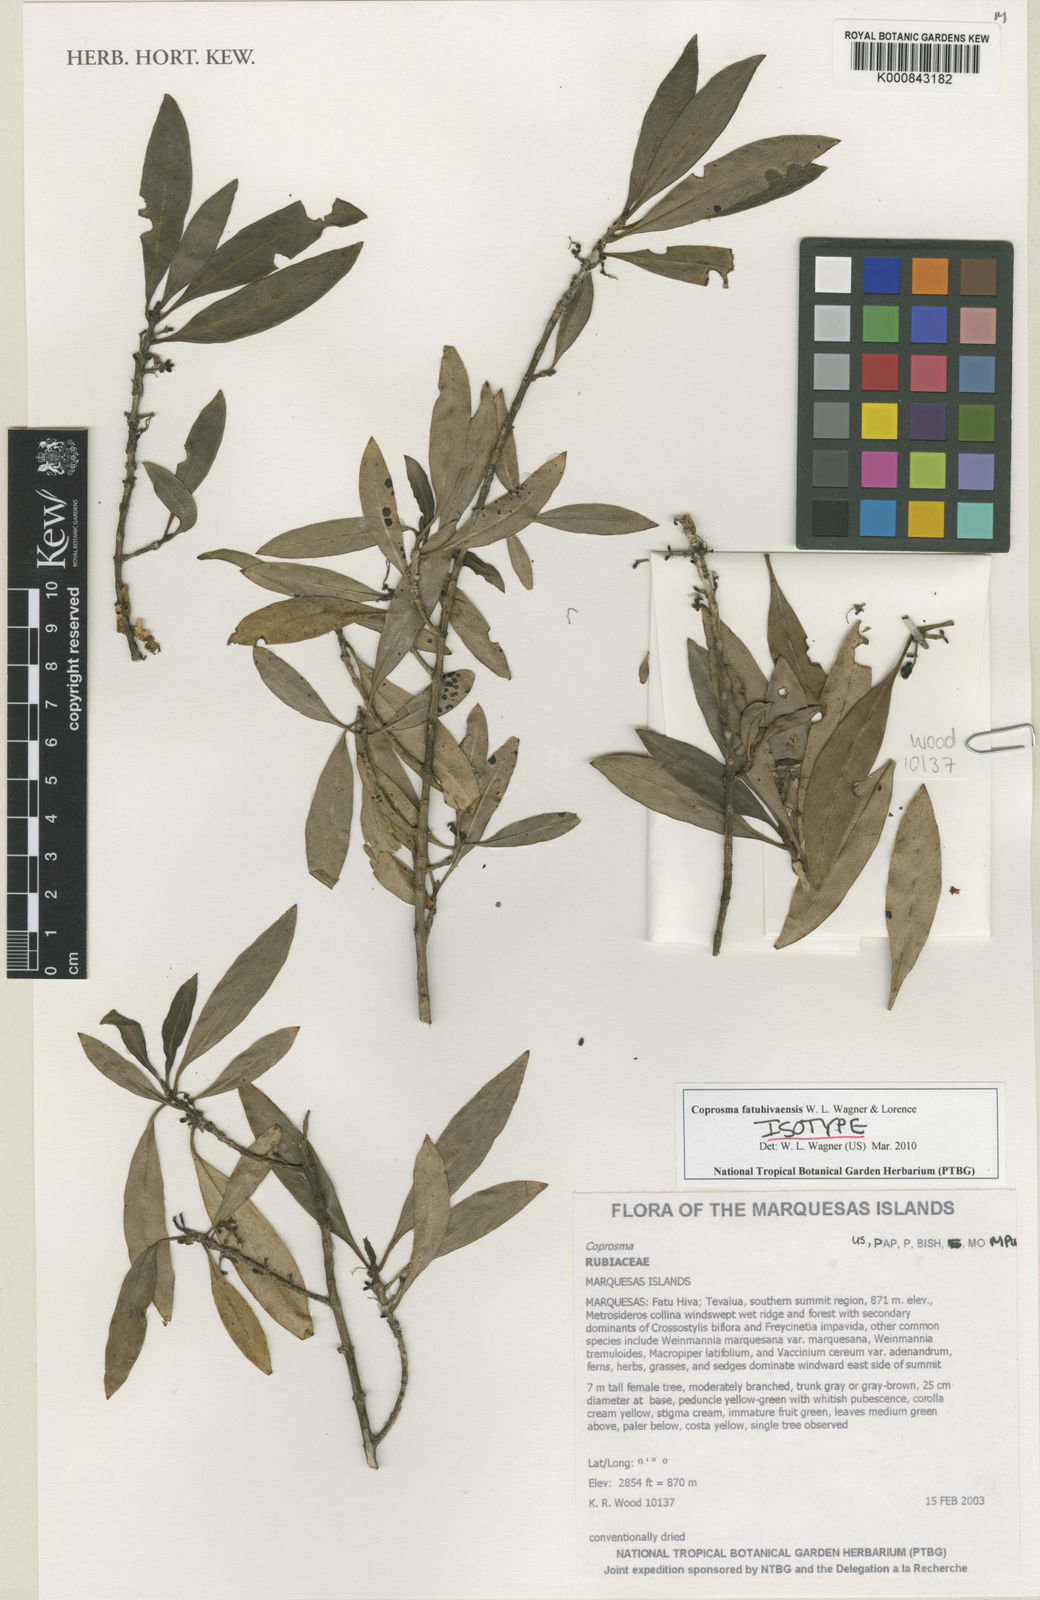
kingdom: Plantae
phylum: Tracheophyta
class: Magnoliopsida
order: Gentianales
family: Rubiaceae
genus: Coprosma
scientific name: Coprosma fatuhivaensis
